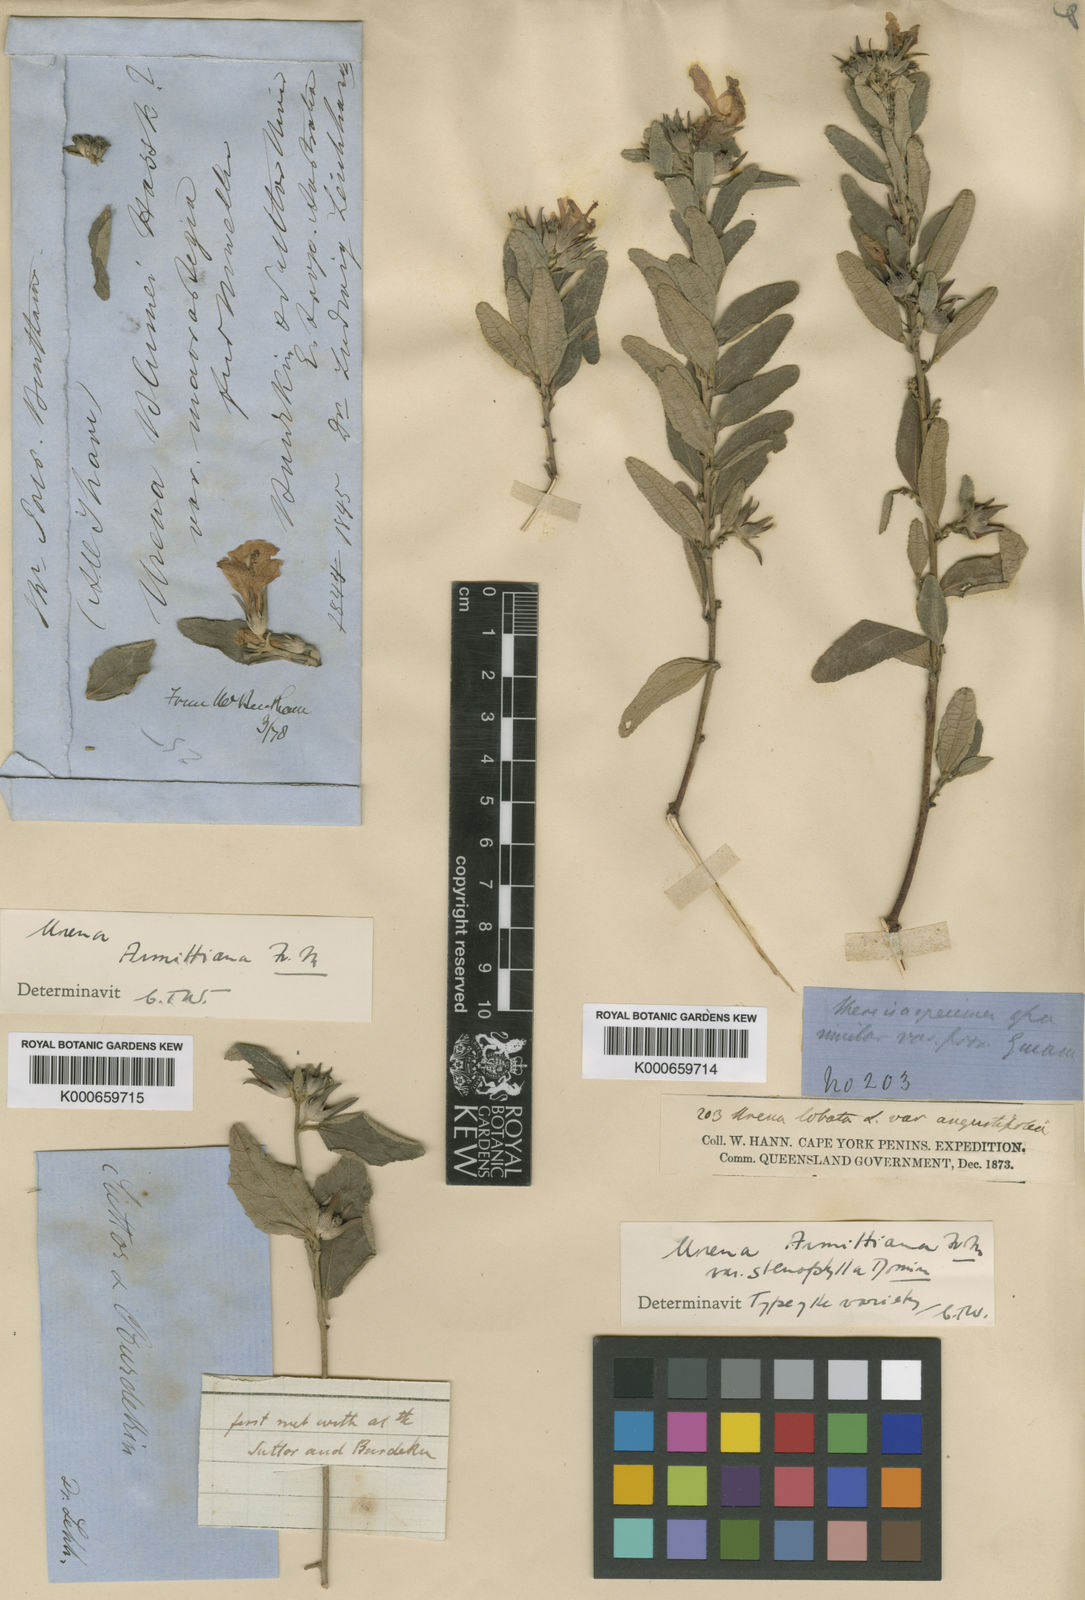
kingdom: Plantae
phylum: Tracheophyta
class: Magnoliopsida
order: Malvales
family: Malvaceae
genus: Urena
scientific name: Urena armitiana
